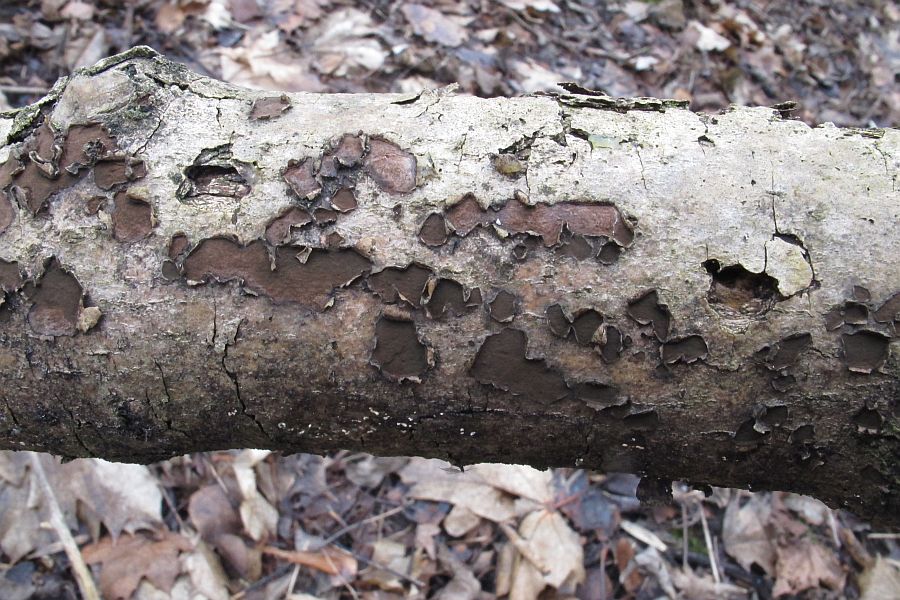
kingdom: Fungi
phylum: Ascomycota
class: Sordariomycetes
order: Xylariales
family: Hypoxylaceae
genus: Hypoxylon
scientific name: Hypoxylon petriniae
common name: nedsænket kulbær
